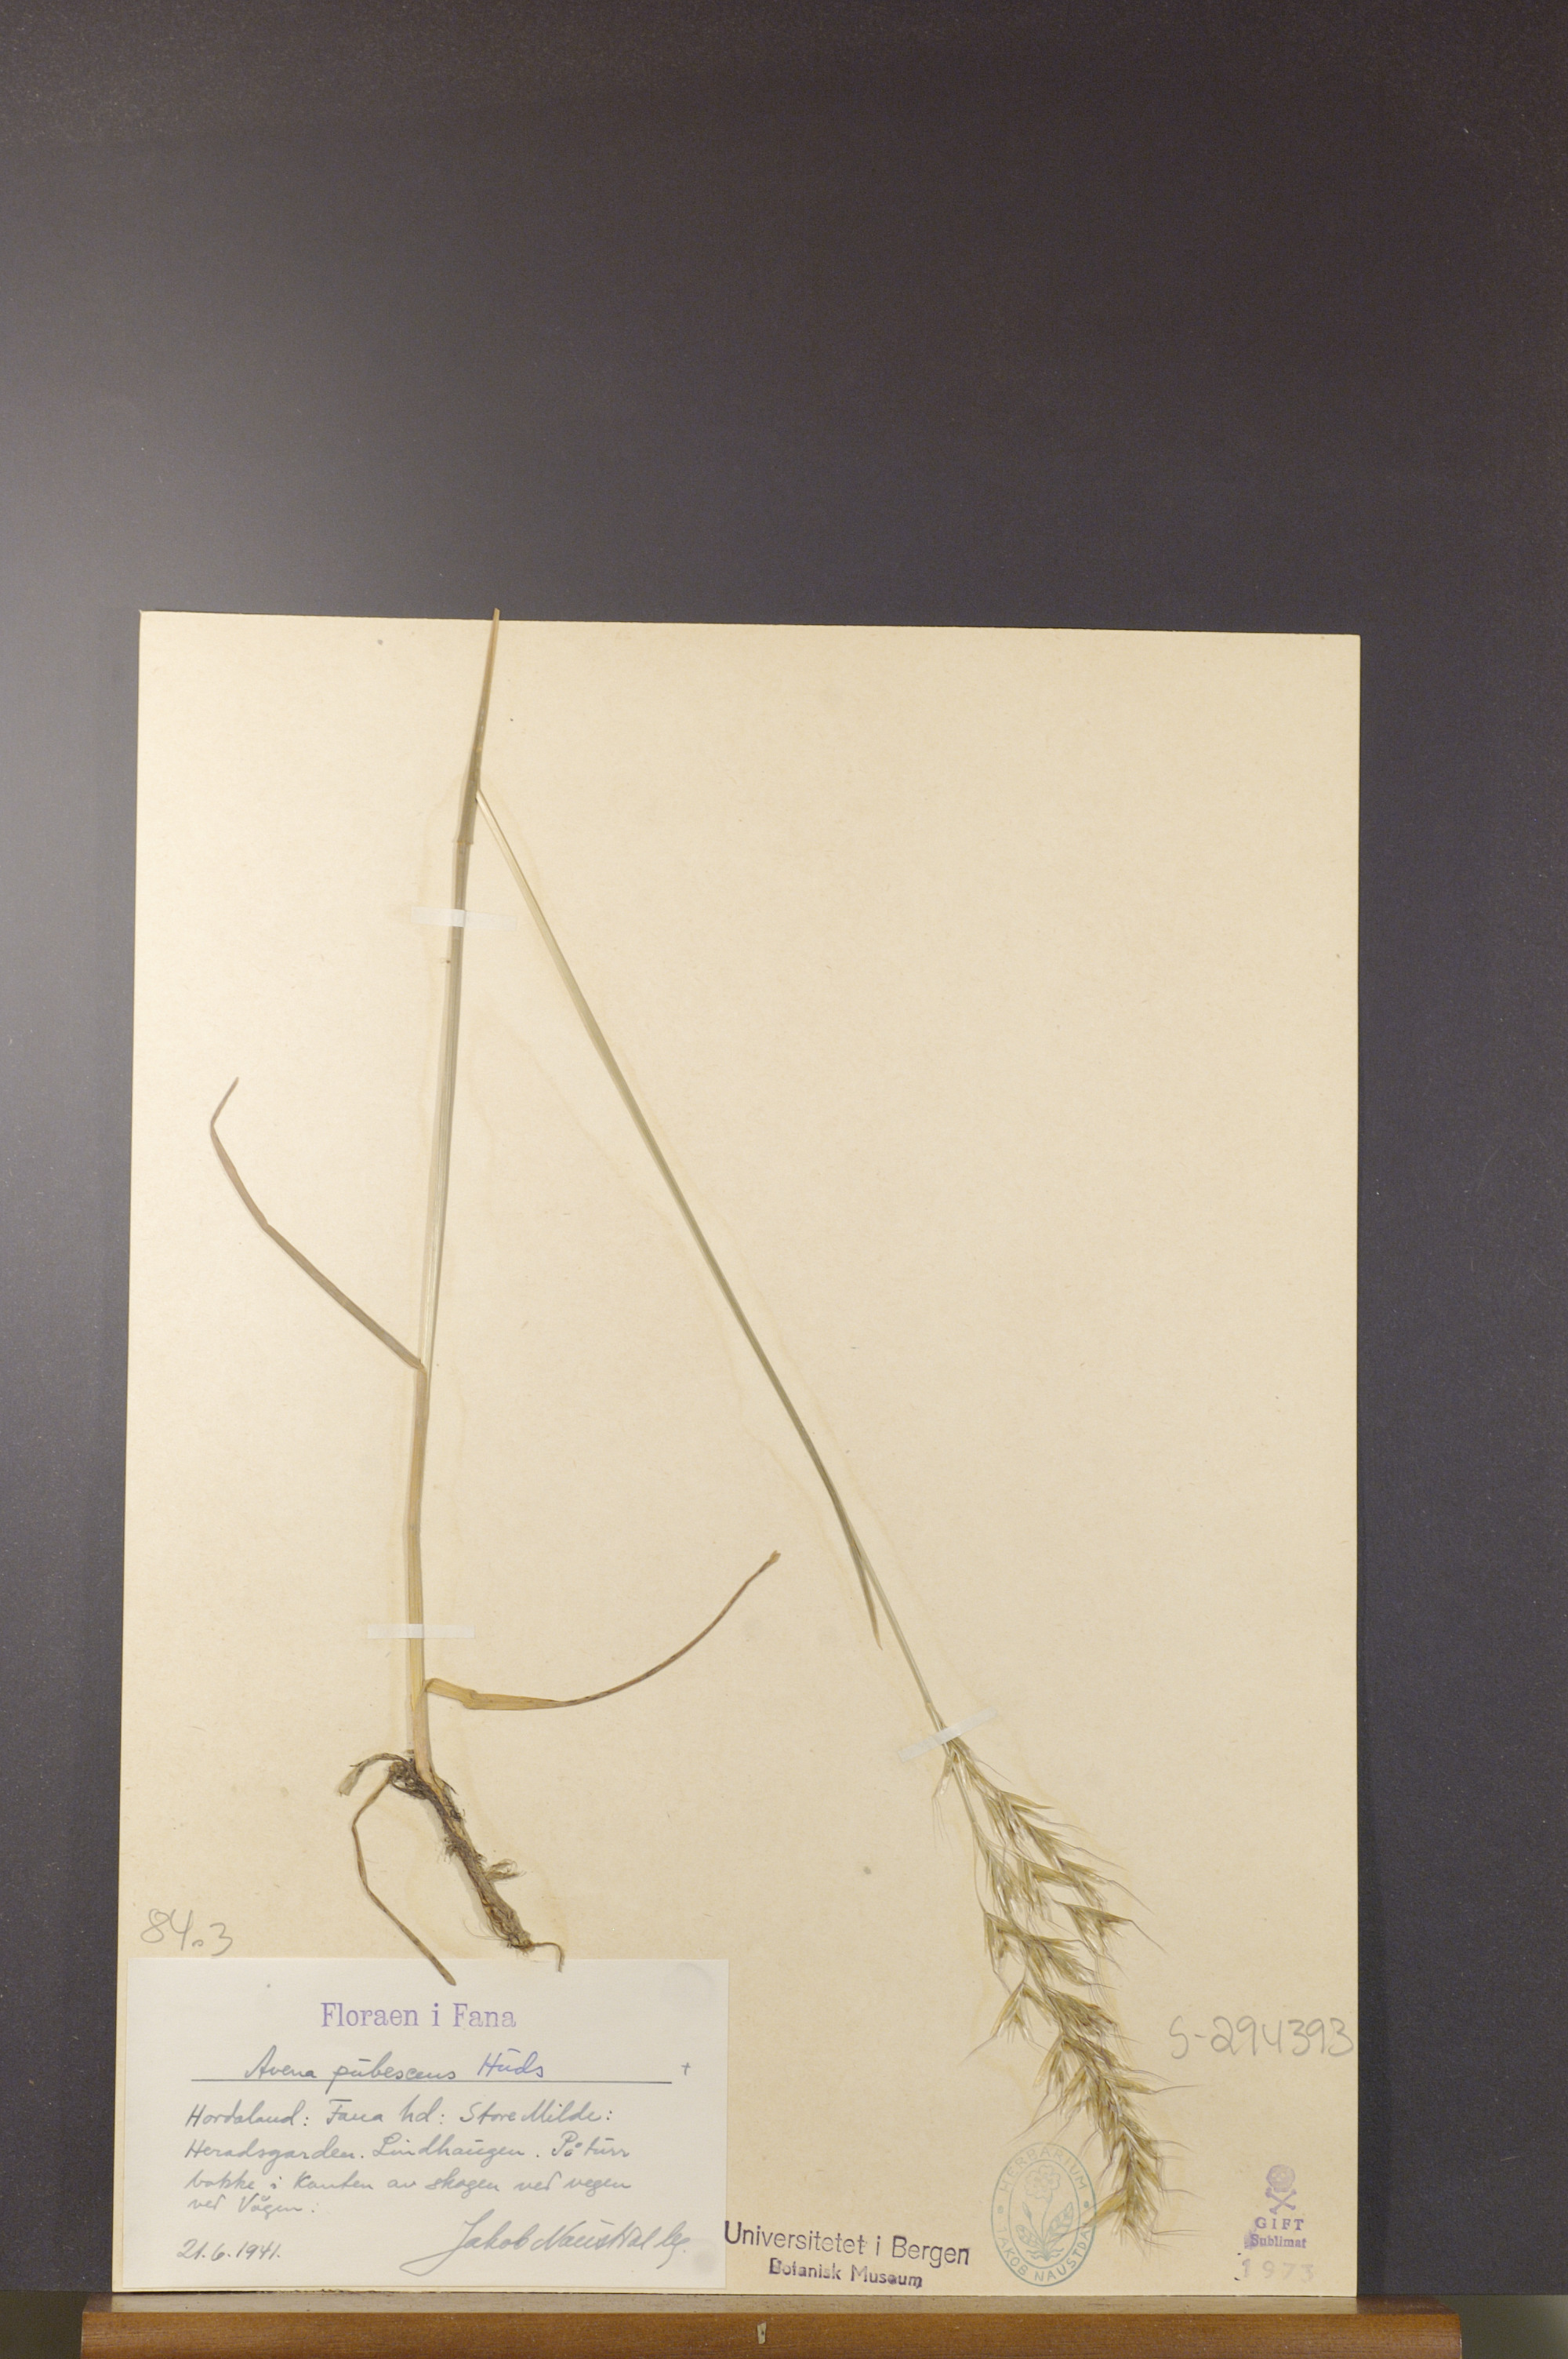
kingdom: Plantae
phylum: Tracheophyta
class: Liliopsida
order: Poales
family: Poaceae
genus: Avenula
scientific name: Avenula pubescens
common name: Downy alpine oatgrass
